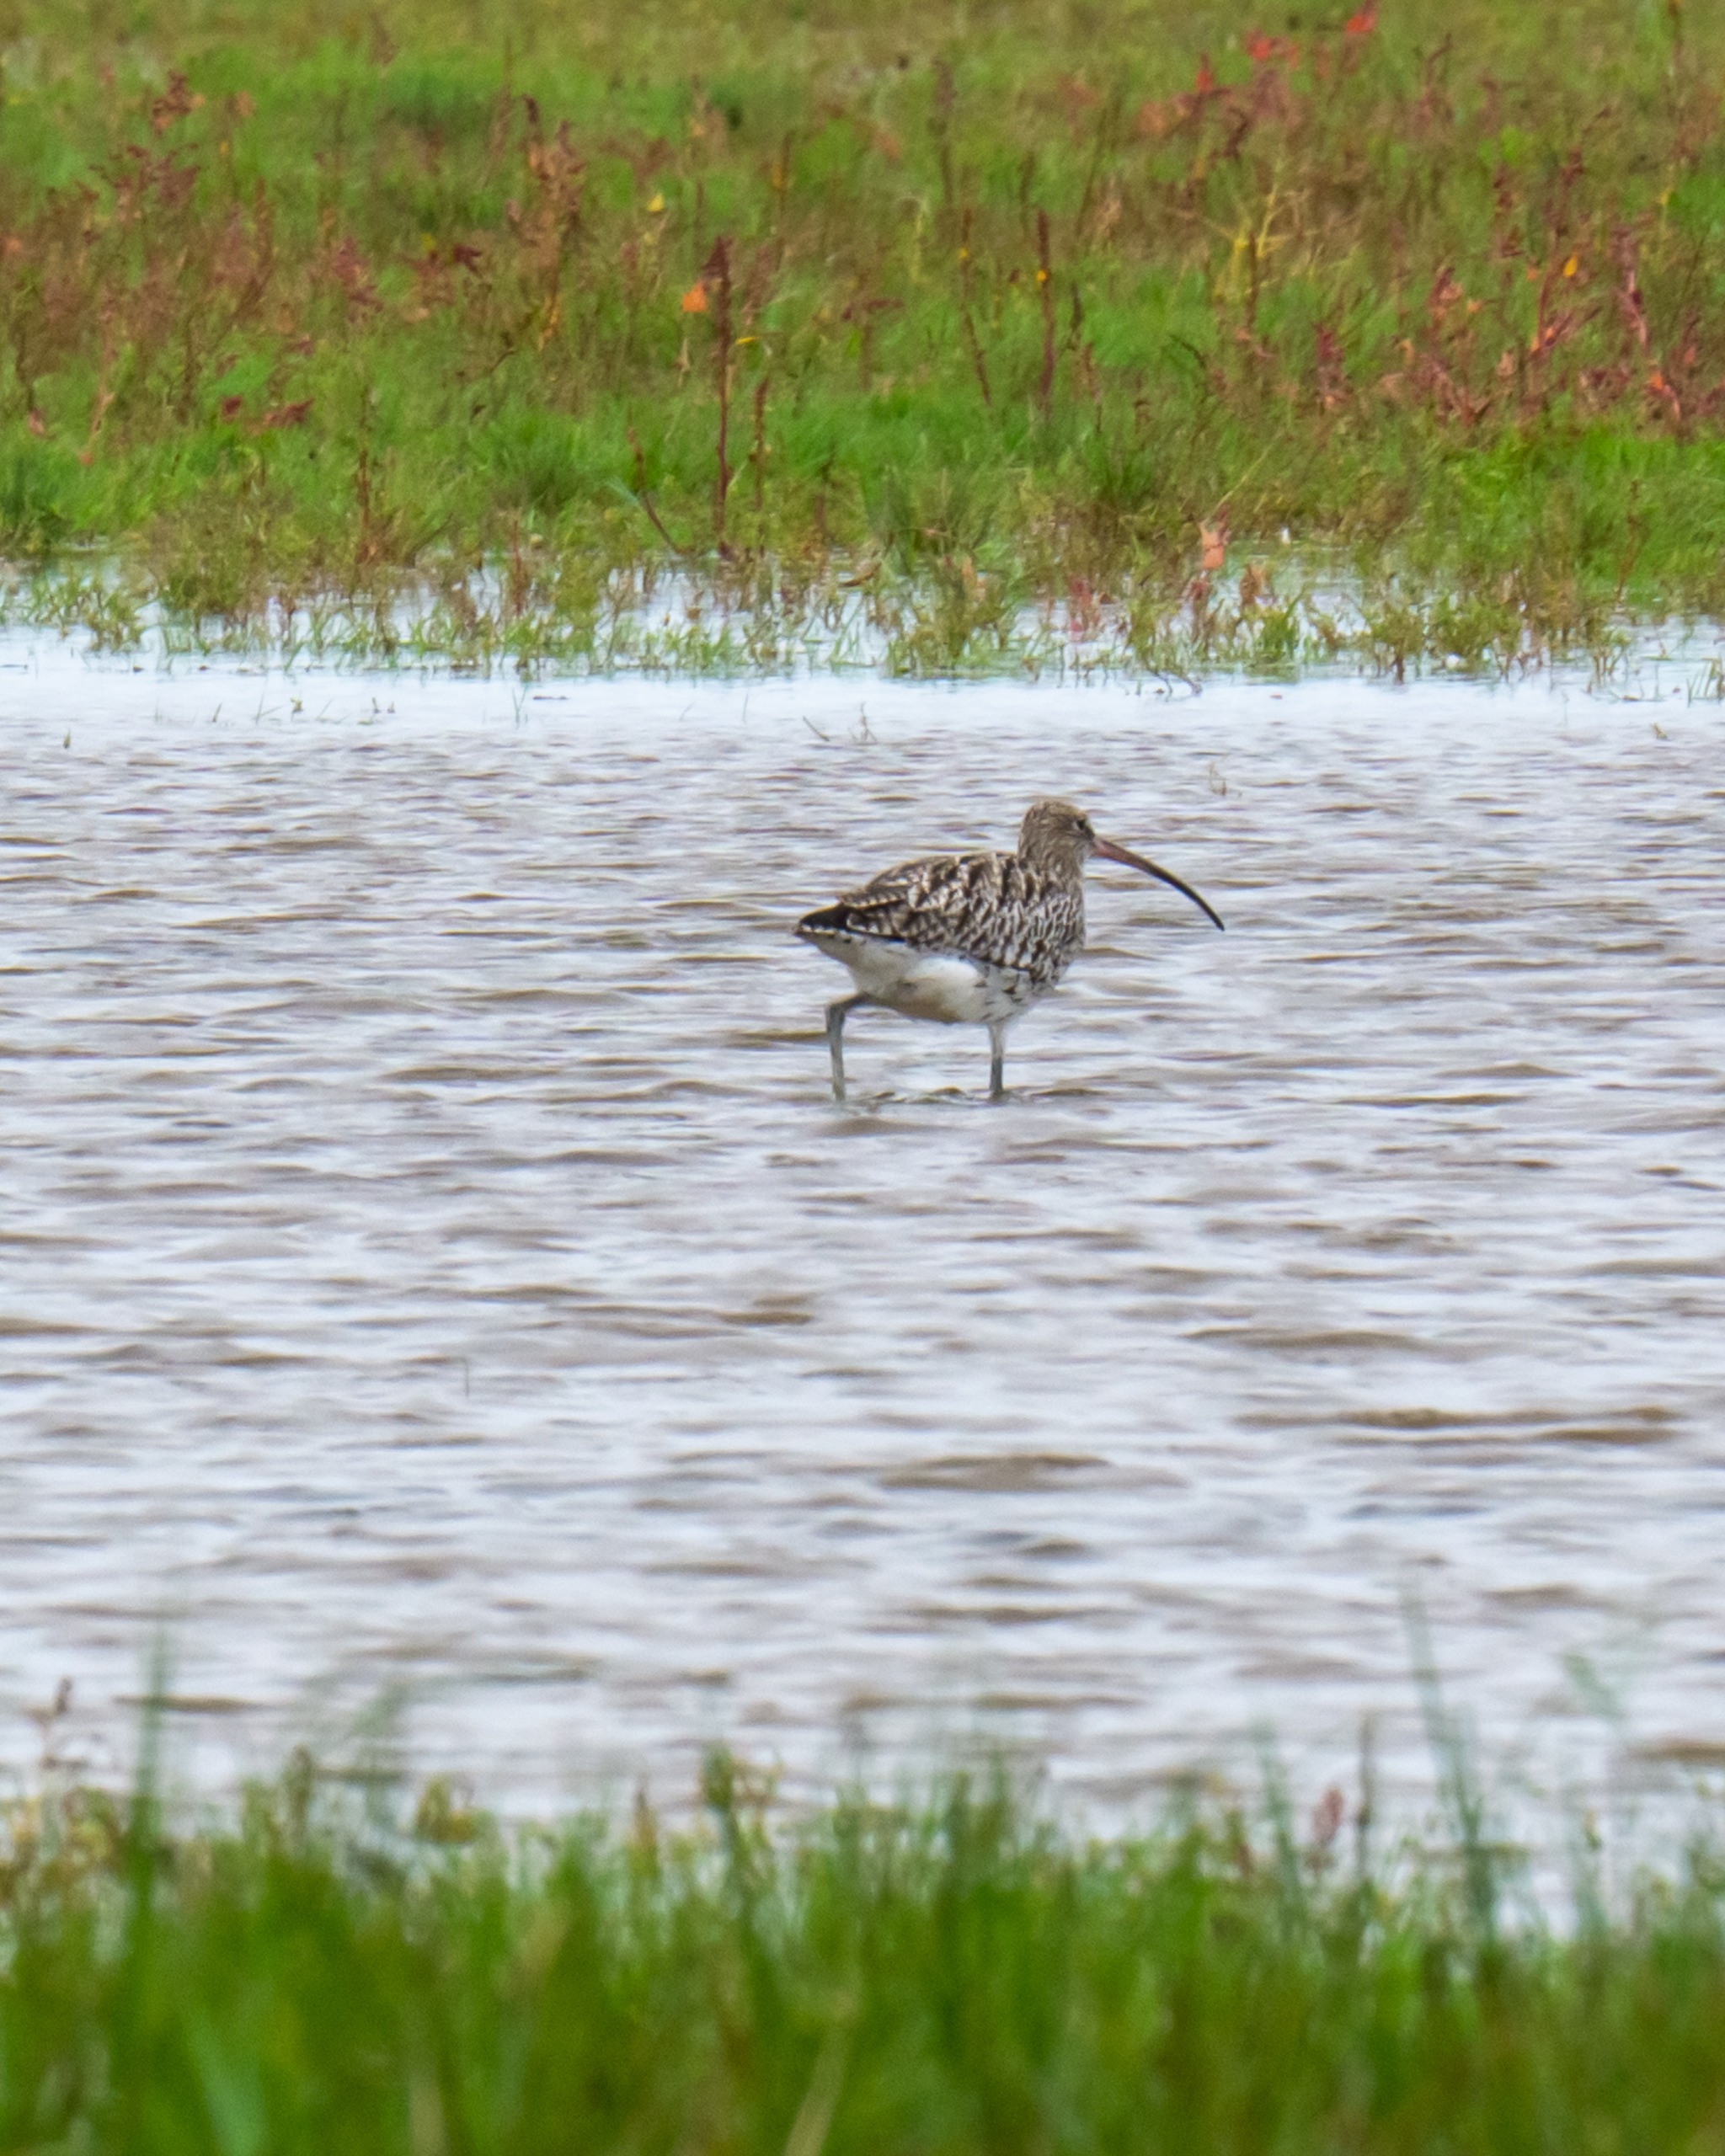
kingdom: Animalia
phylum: Chordata
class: Aves
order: Charadriiformes
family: Scolopacidae
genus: Numenius
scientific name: Numenius arquata
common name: Storspove
